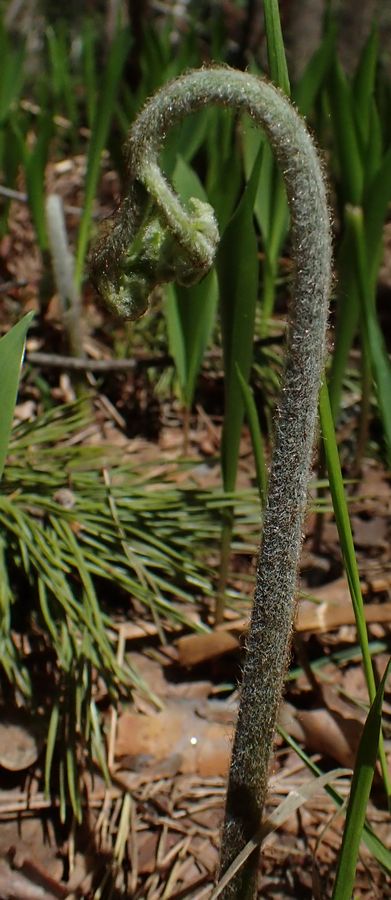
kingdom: Plantae
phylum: Tracheophyta
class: Polypodiopsida
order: Polypodiales
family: Dennstaedtiaceae
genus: Pteridium
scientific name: Pteridium aquilinum
